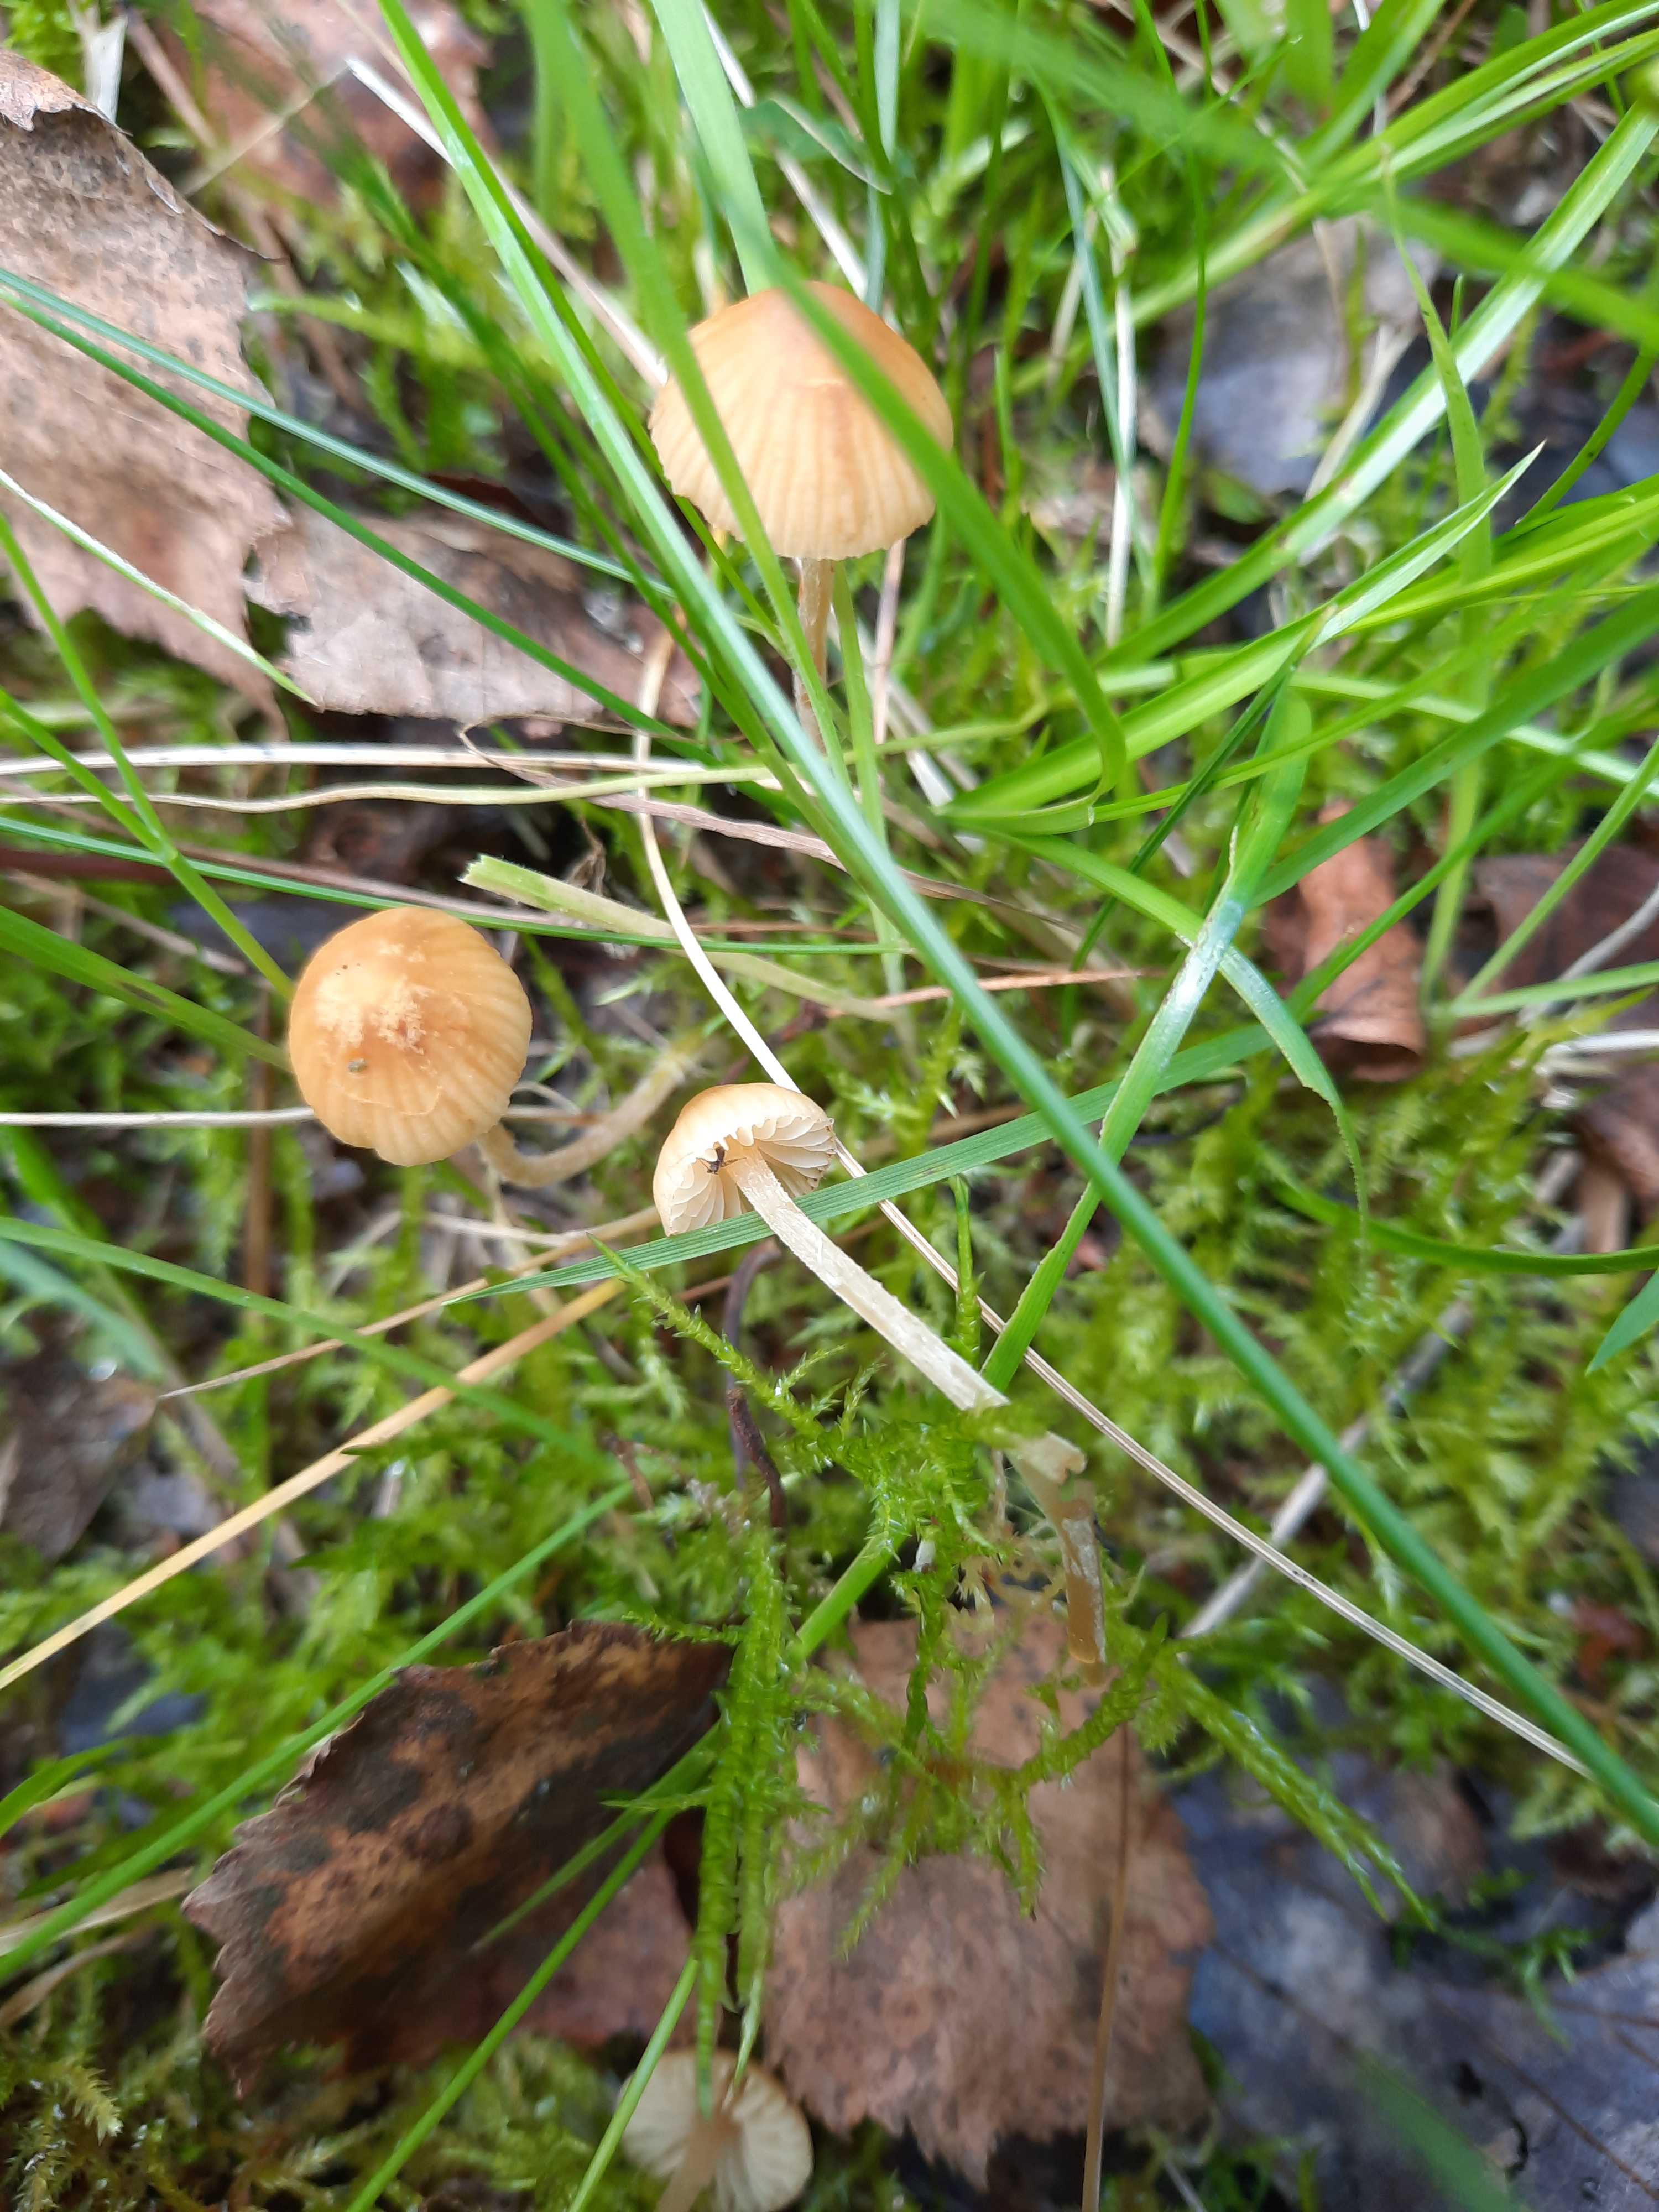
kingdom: Fungi
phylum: Basidiomycota
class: Agaricomycetes
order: Agaricales
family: Hymenogastraceae
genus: Galerina
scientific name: Galerina
